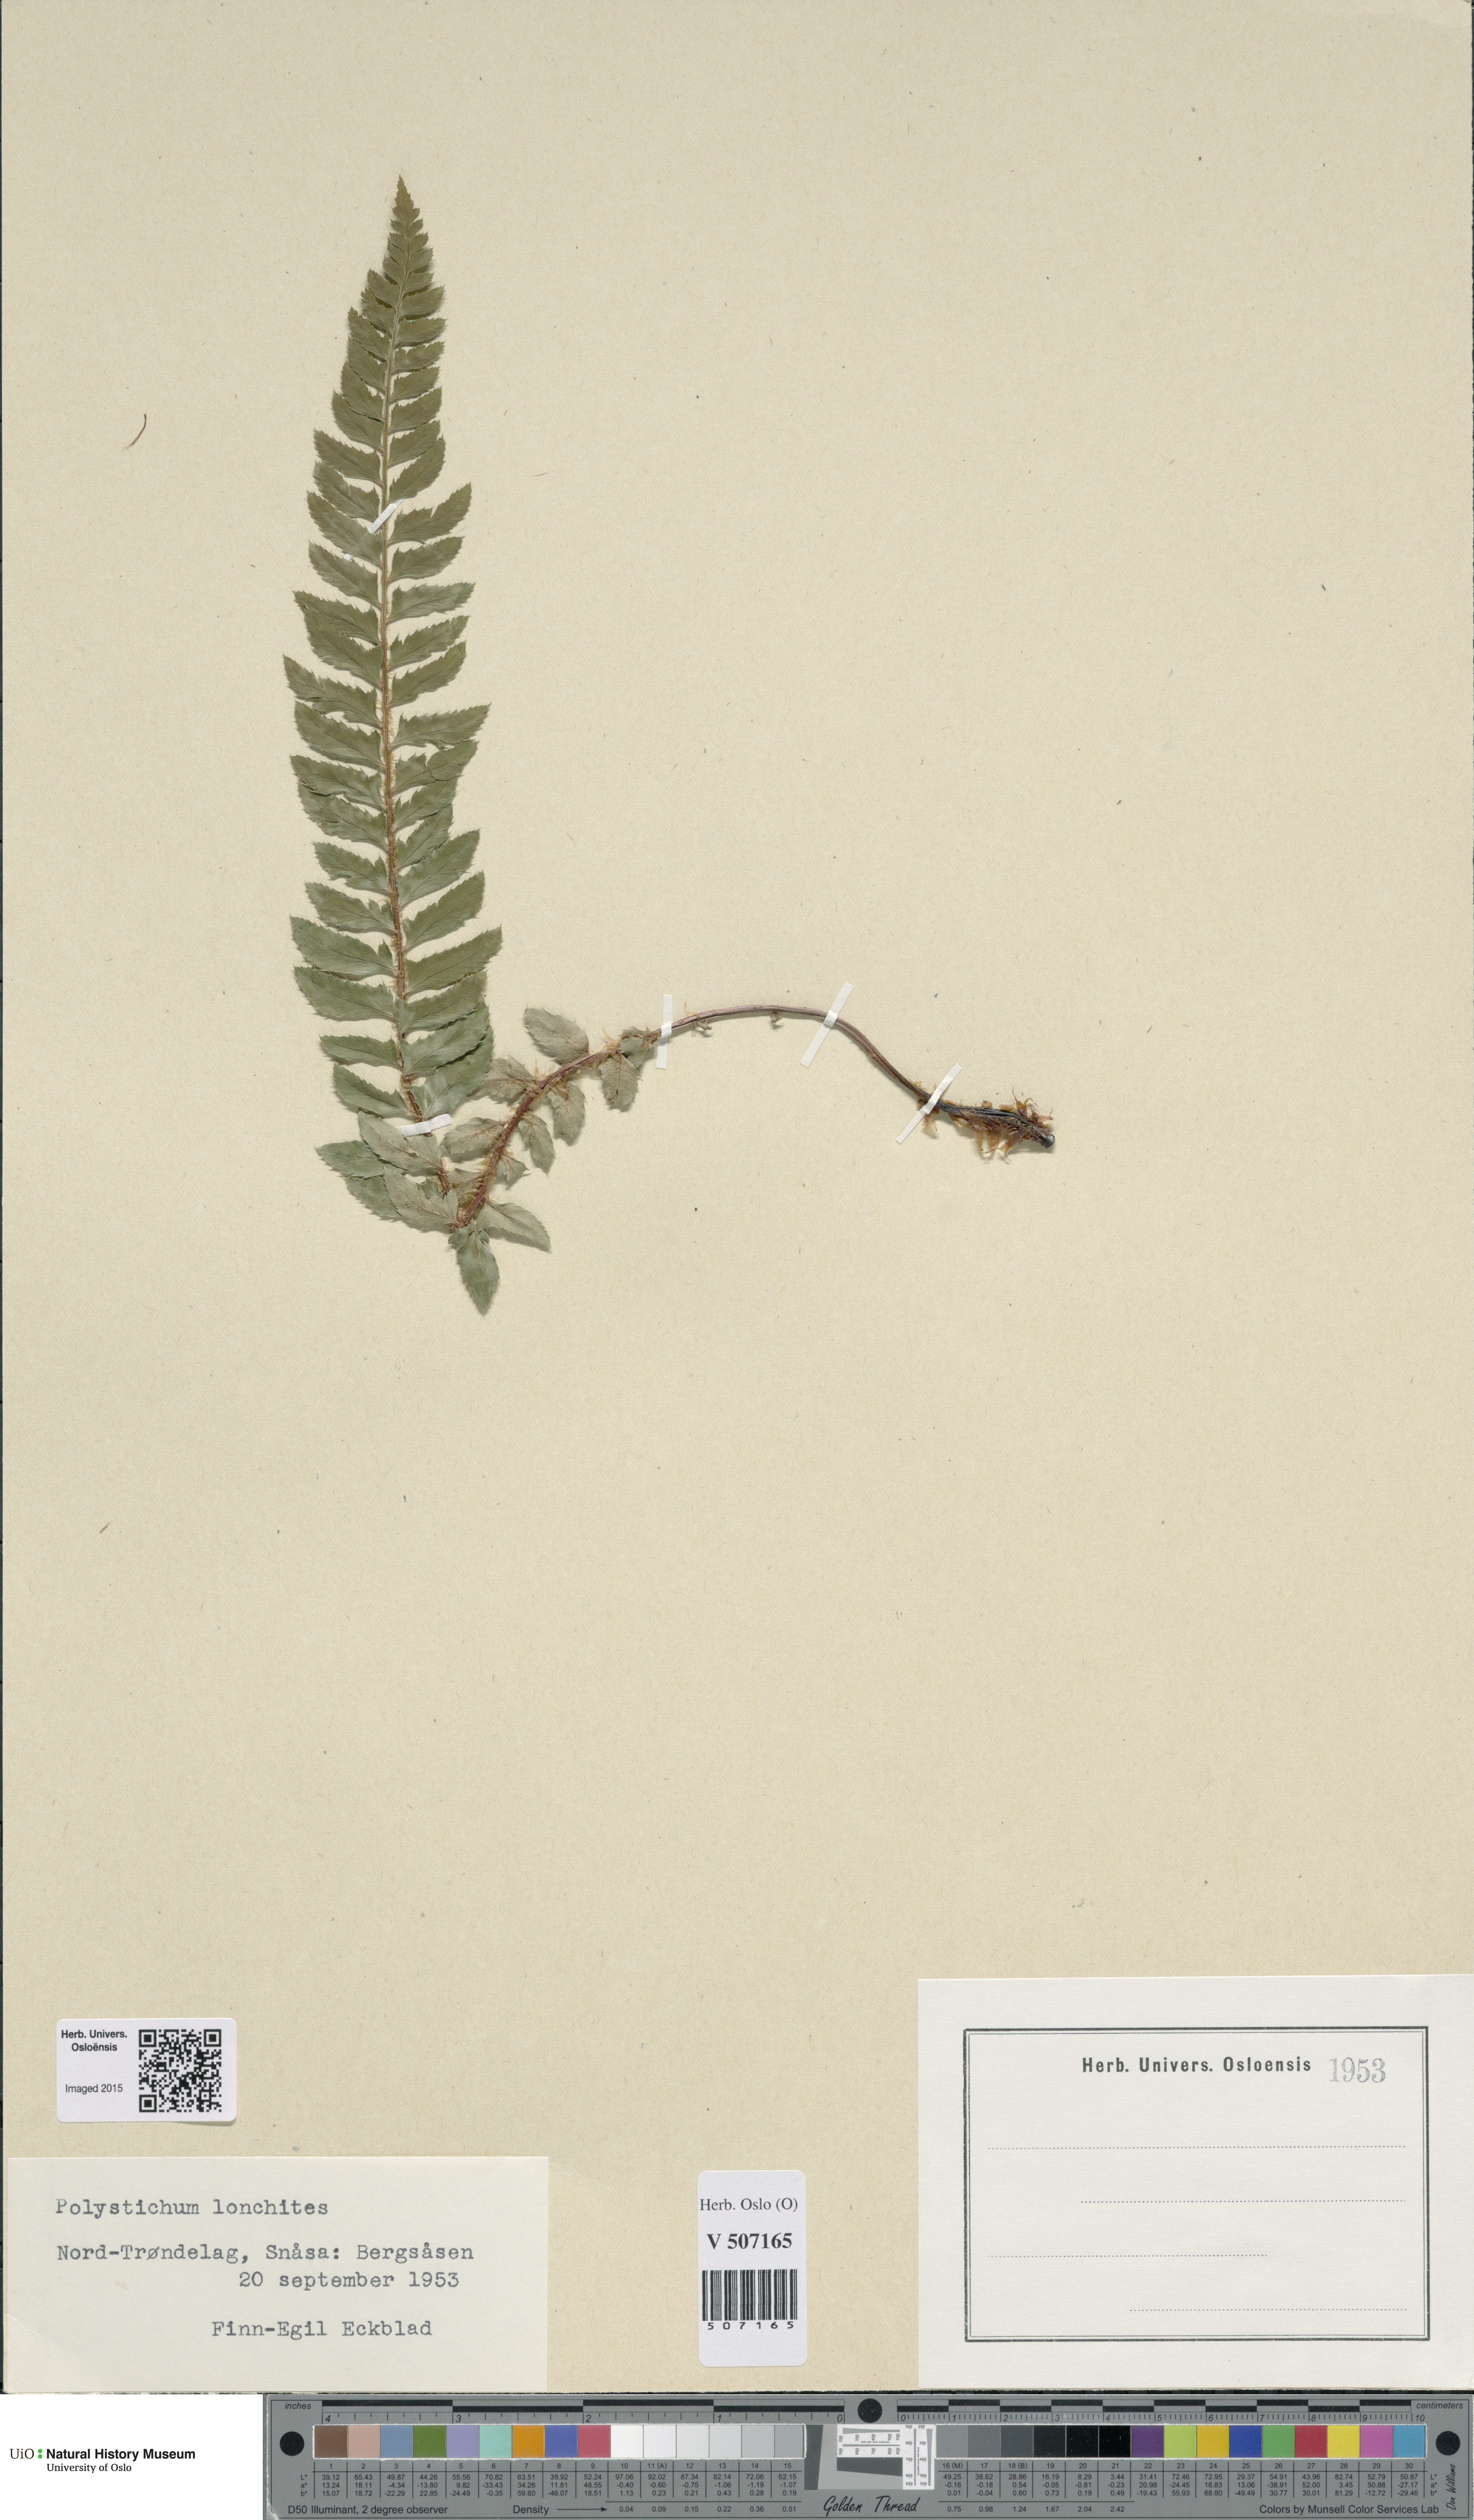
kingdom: Plantae
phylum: Tracheophyta
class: Polypodiopsida
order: Polypodiales
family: Dryopteridaceae
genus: Polystichum
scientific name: Polystichum lonchitis
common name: Holly fern
